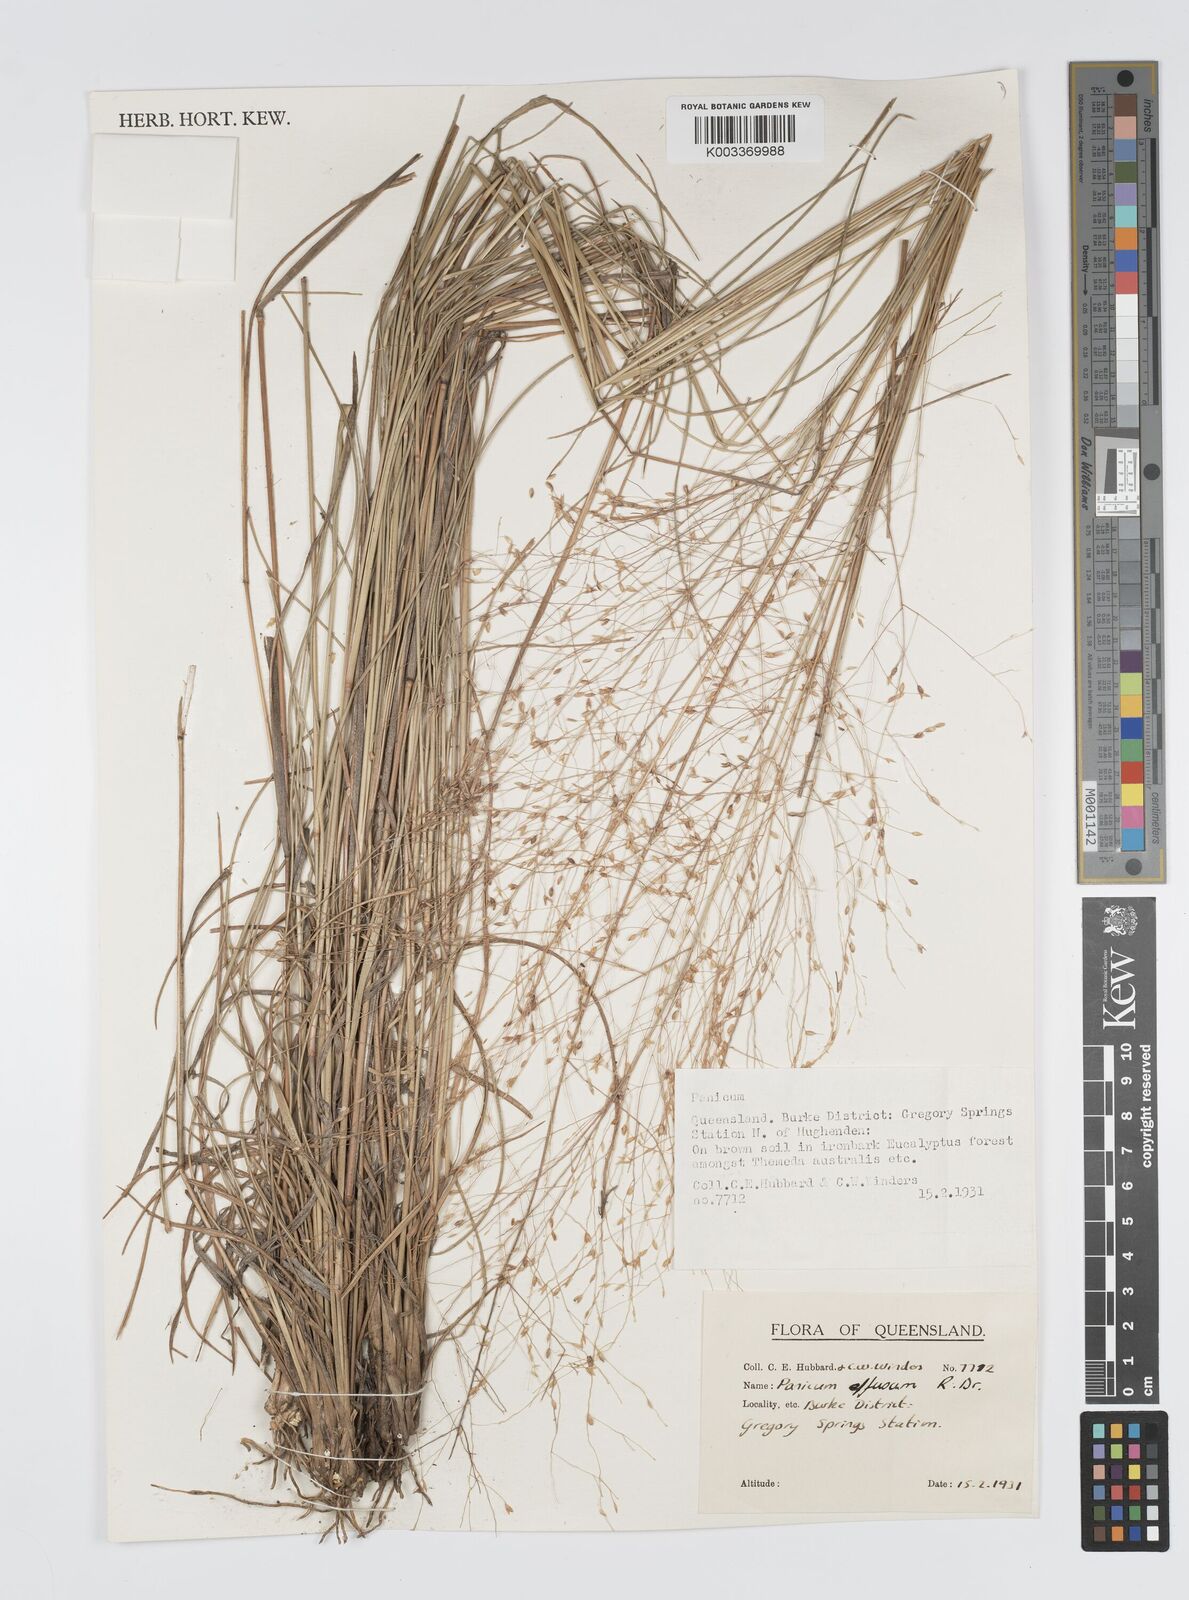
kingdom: Plantae
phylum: Tracheophyta
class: Liliopsida
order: Poales
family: Poaceae
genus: Panicum
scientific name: Panicum effusum
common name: Hairy panic grass
